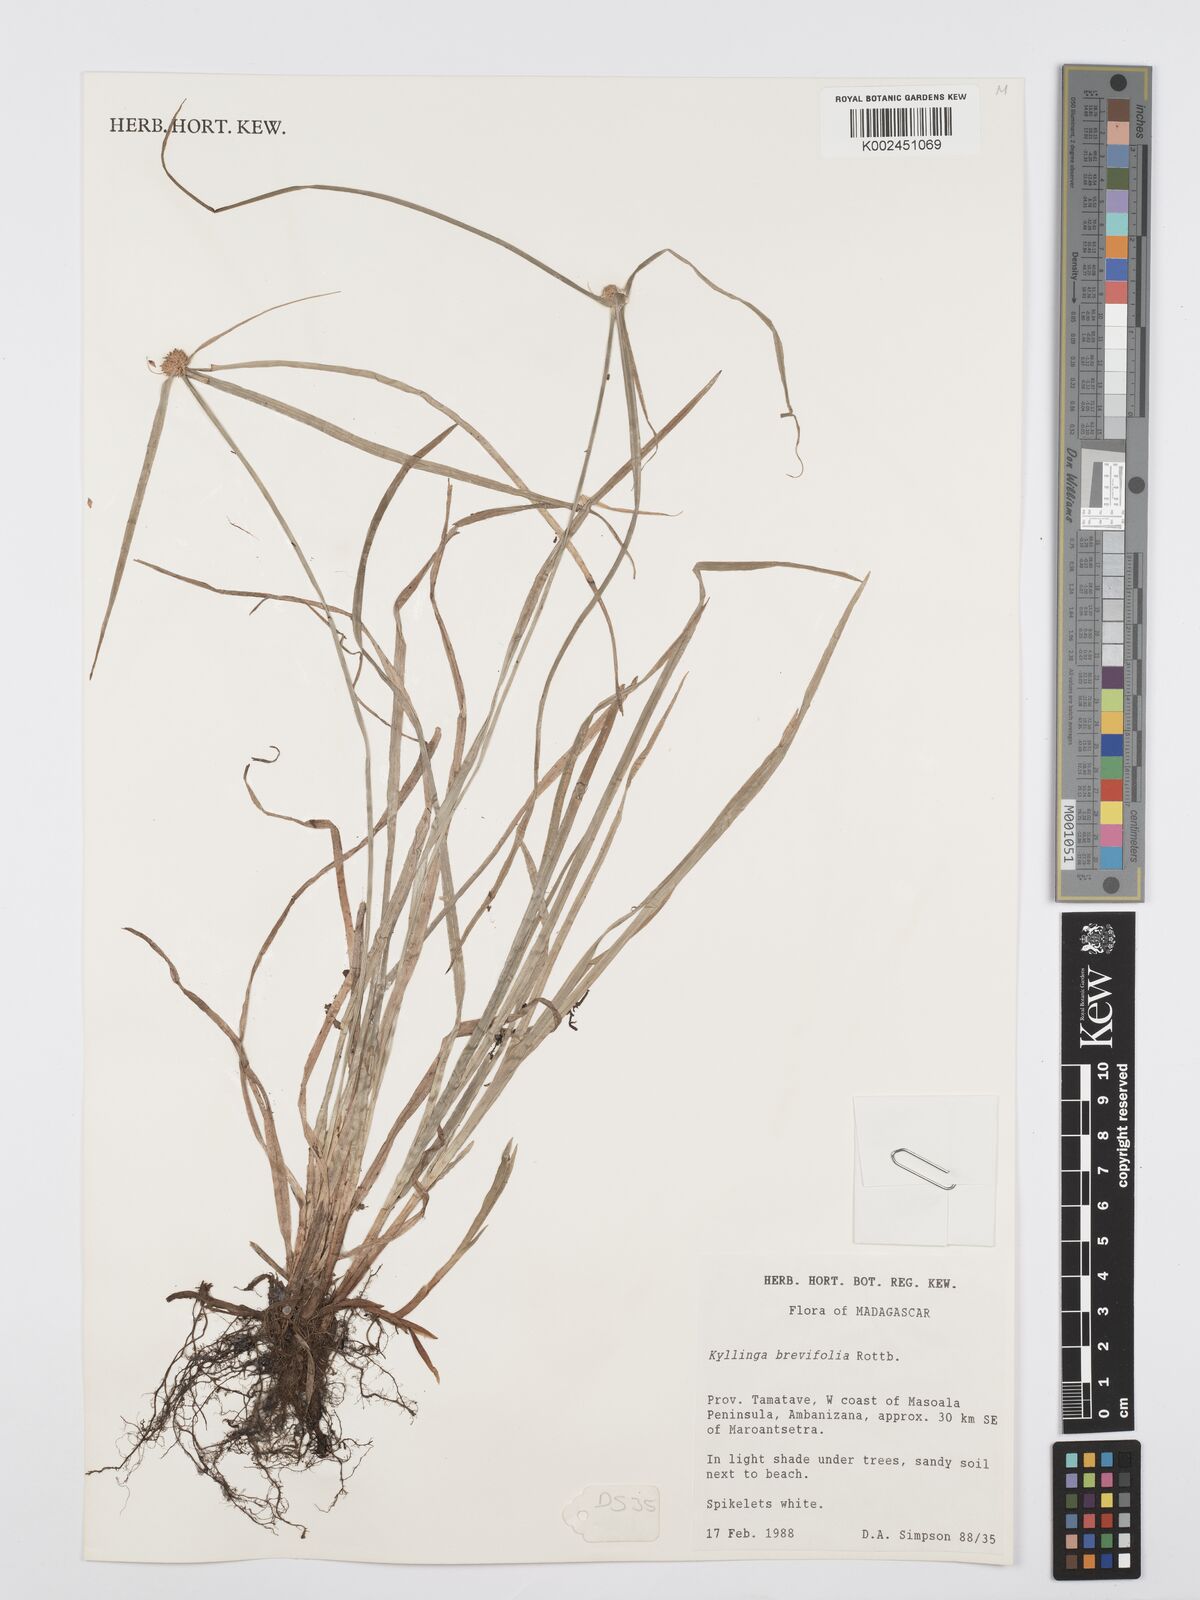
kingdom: Plantae
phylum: Tracheophyta
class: Liliopsida
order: Poales
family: Cyperaceae
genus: Cyperus
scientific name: Cyperus brevifolius
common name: Globe kyllinga
